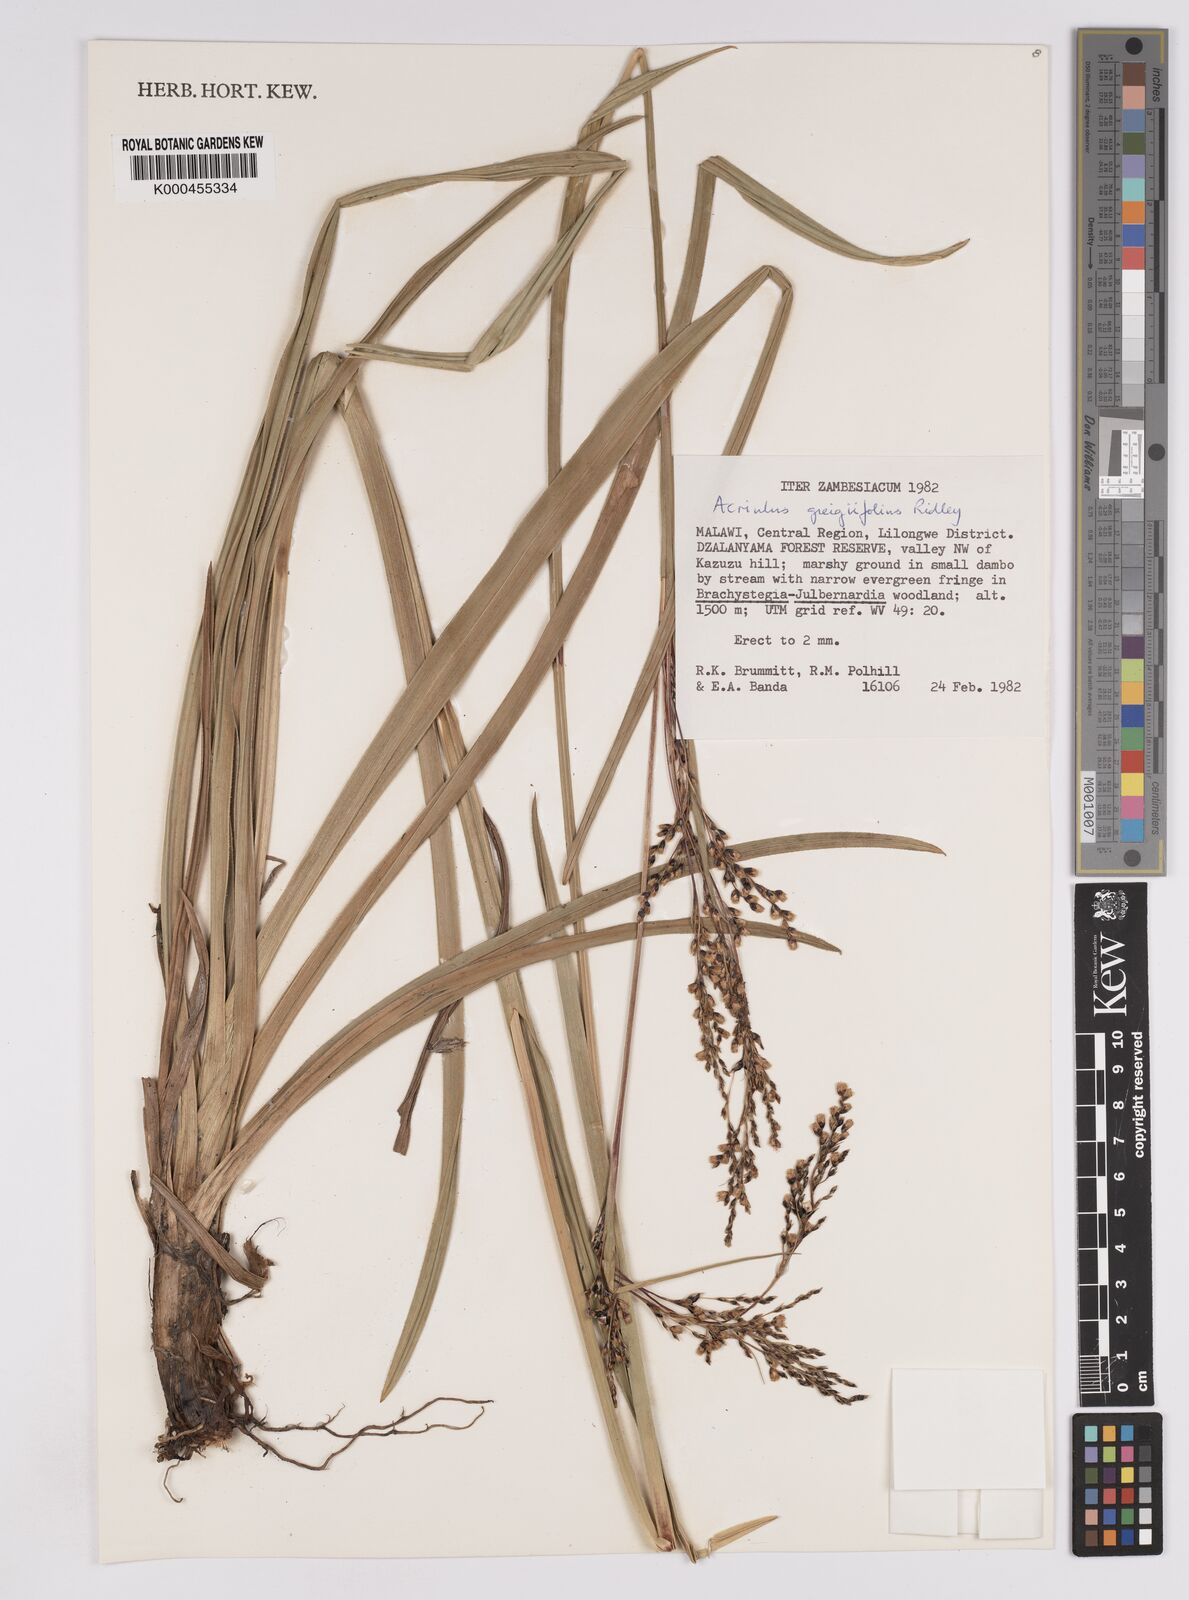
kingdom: Plantae
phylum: Tracheophyta
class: Liliopsida
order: Poales
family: Cyperaceae
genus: Scleria
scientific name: Scleria greigiifolia
